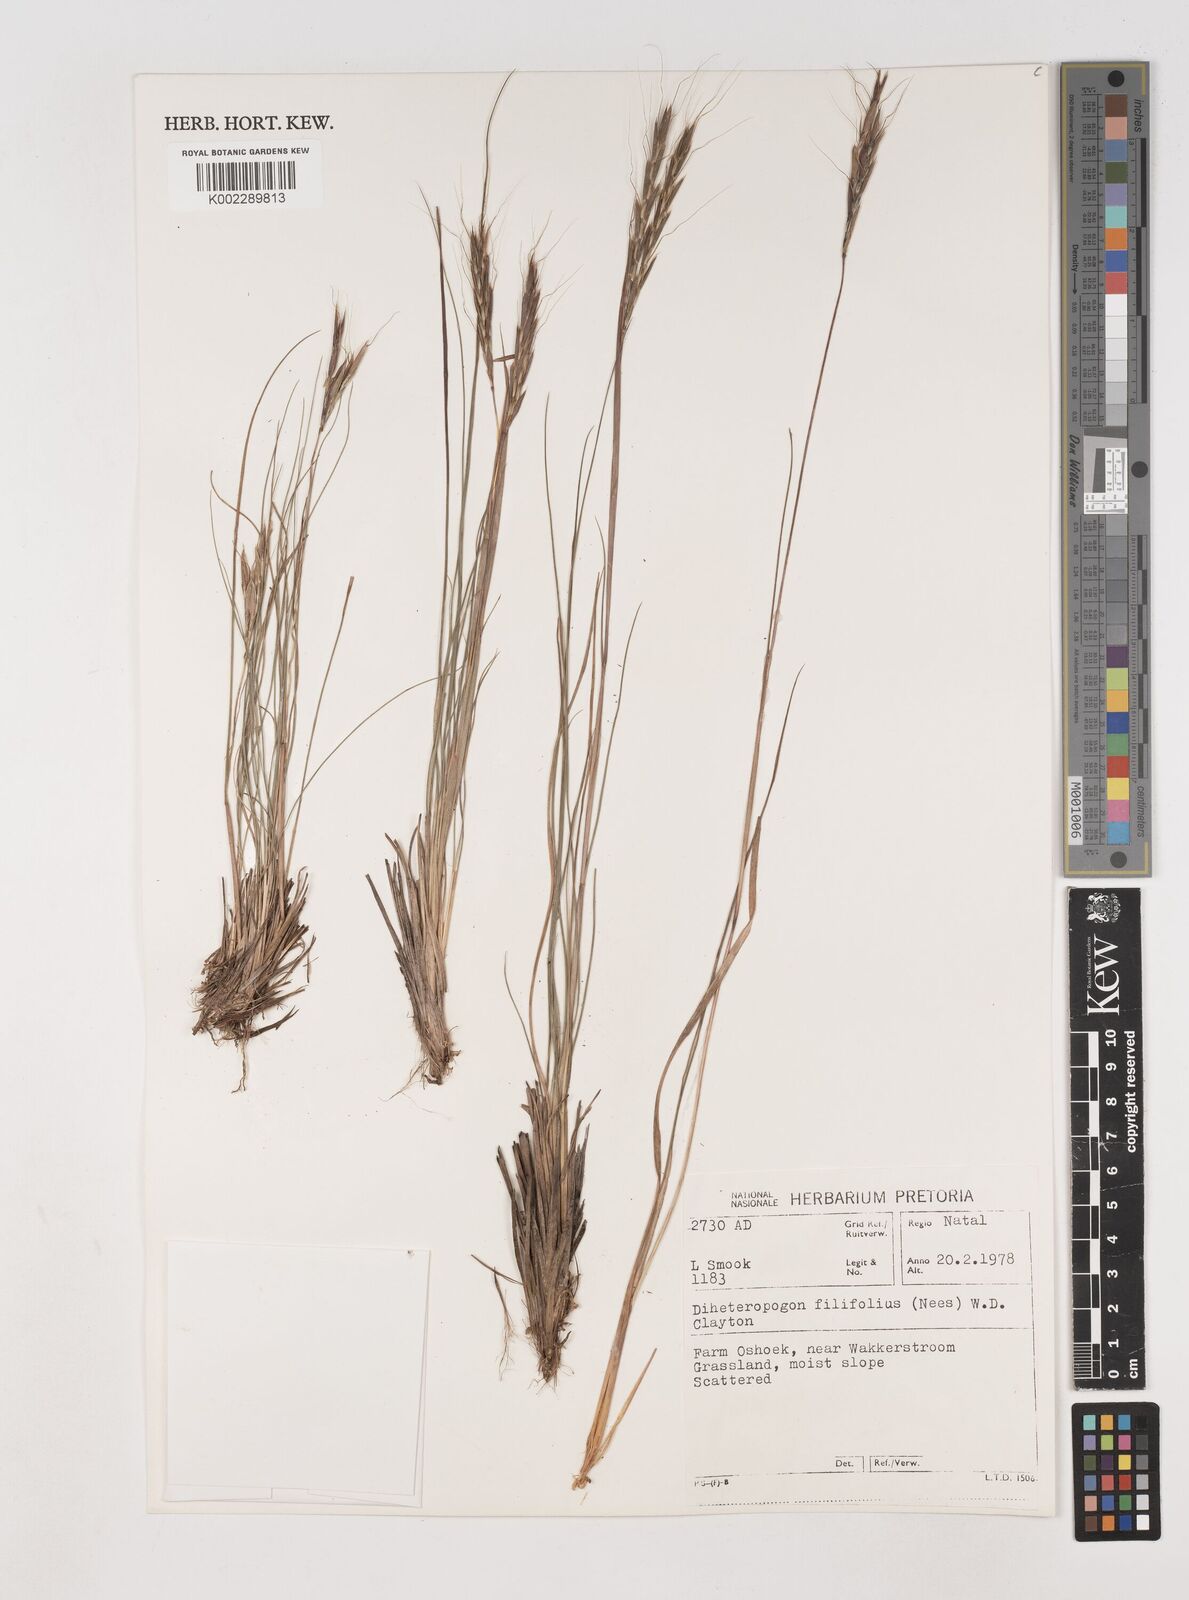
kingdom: Plantae
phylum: Tracheophyta
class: Liliopsida
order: Poales
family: Poaceae
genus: Diheteropogon
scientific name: Diheteropogon filifolius
